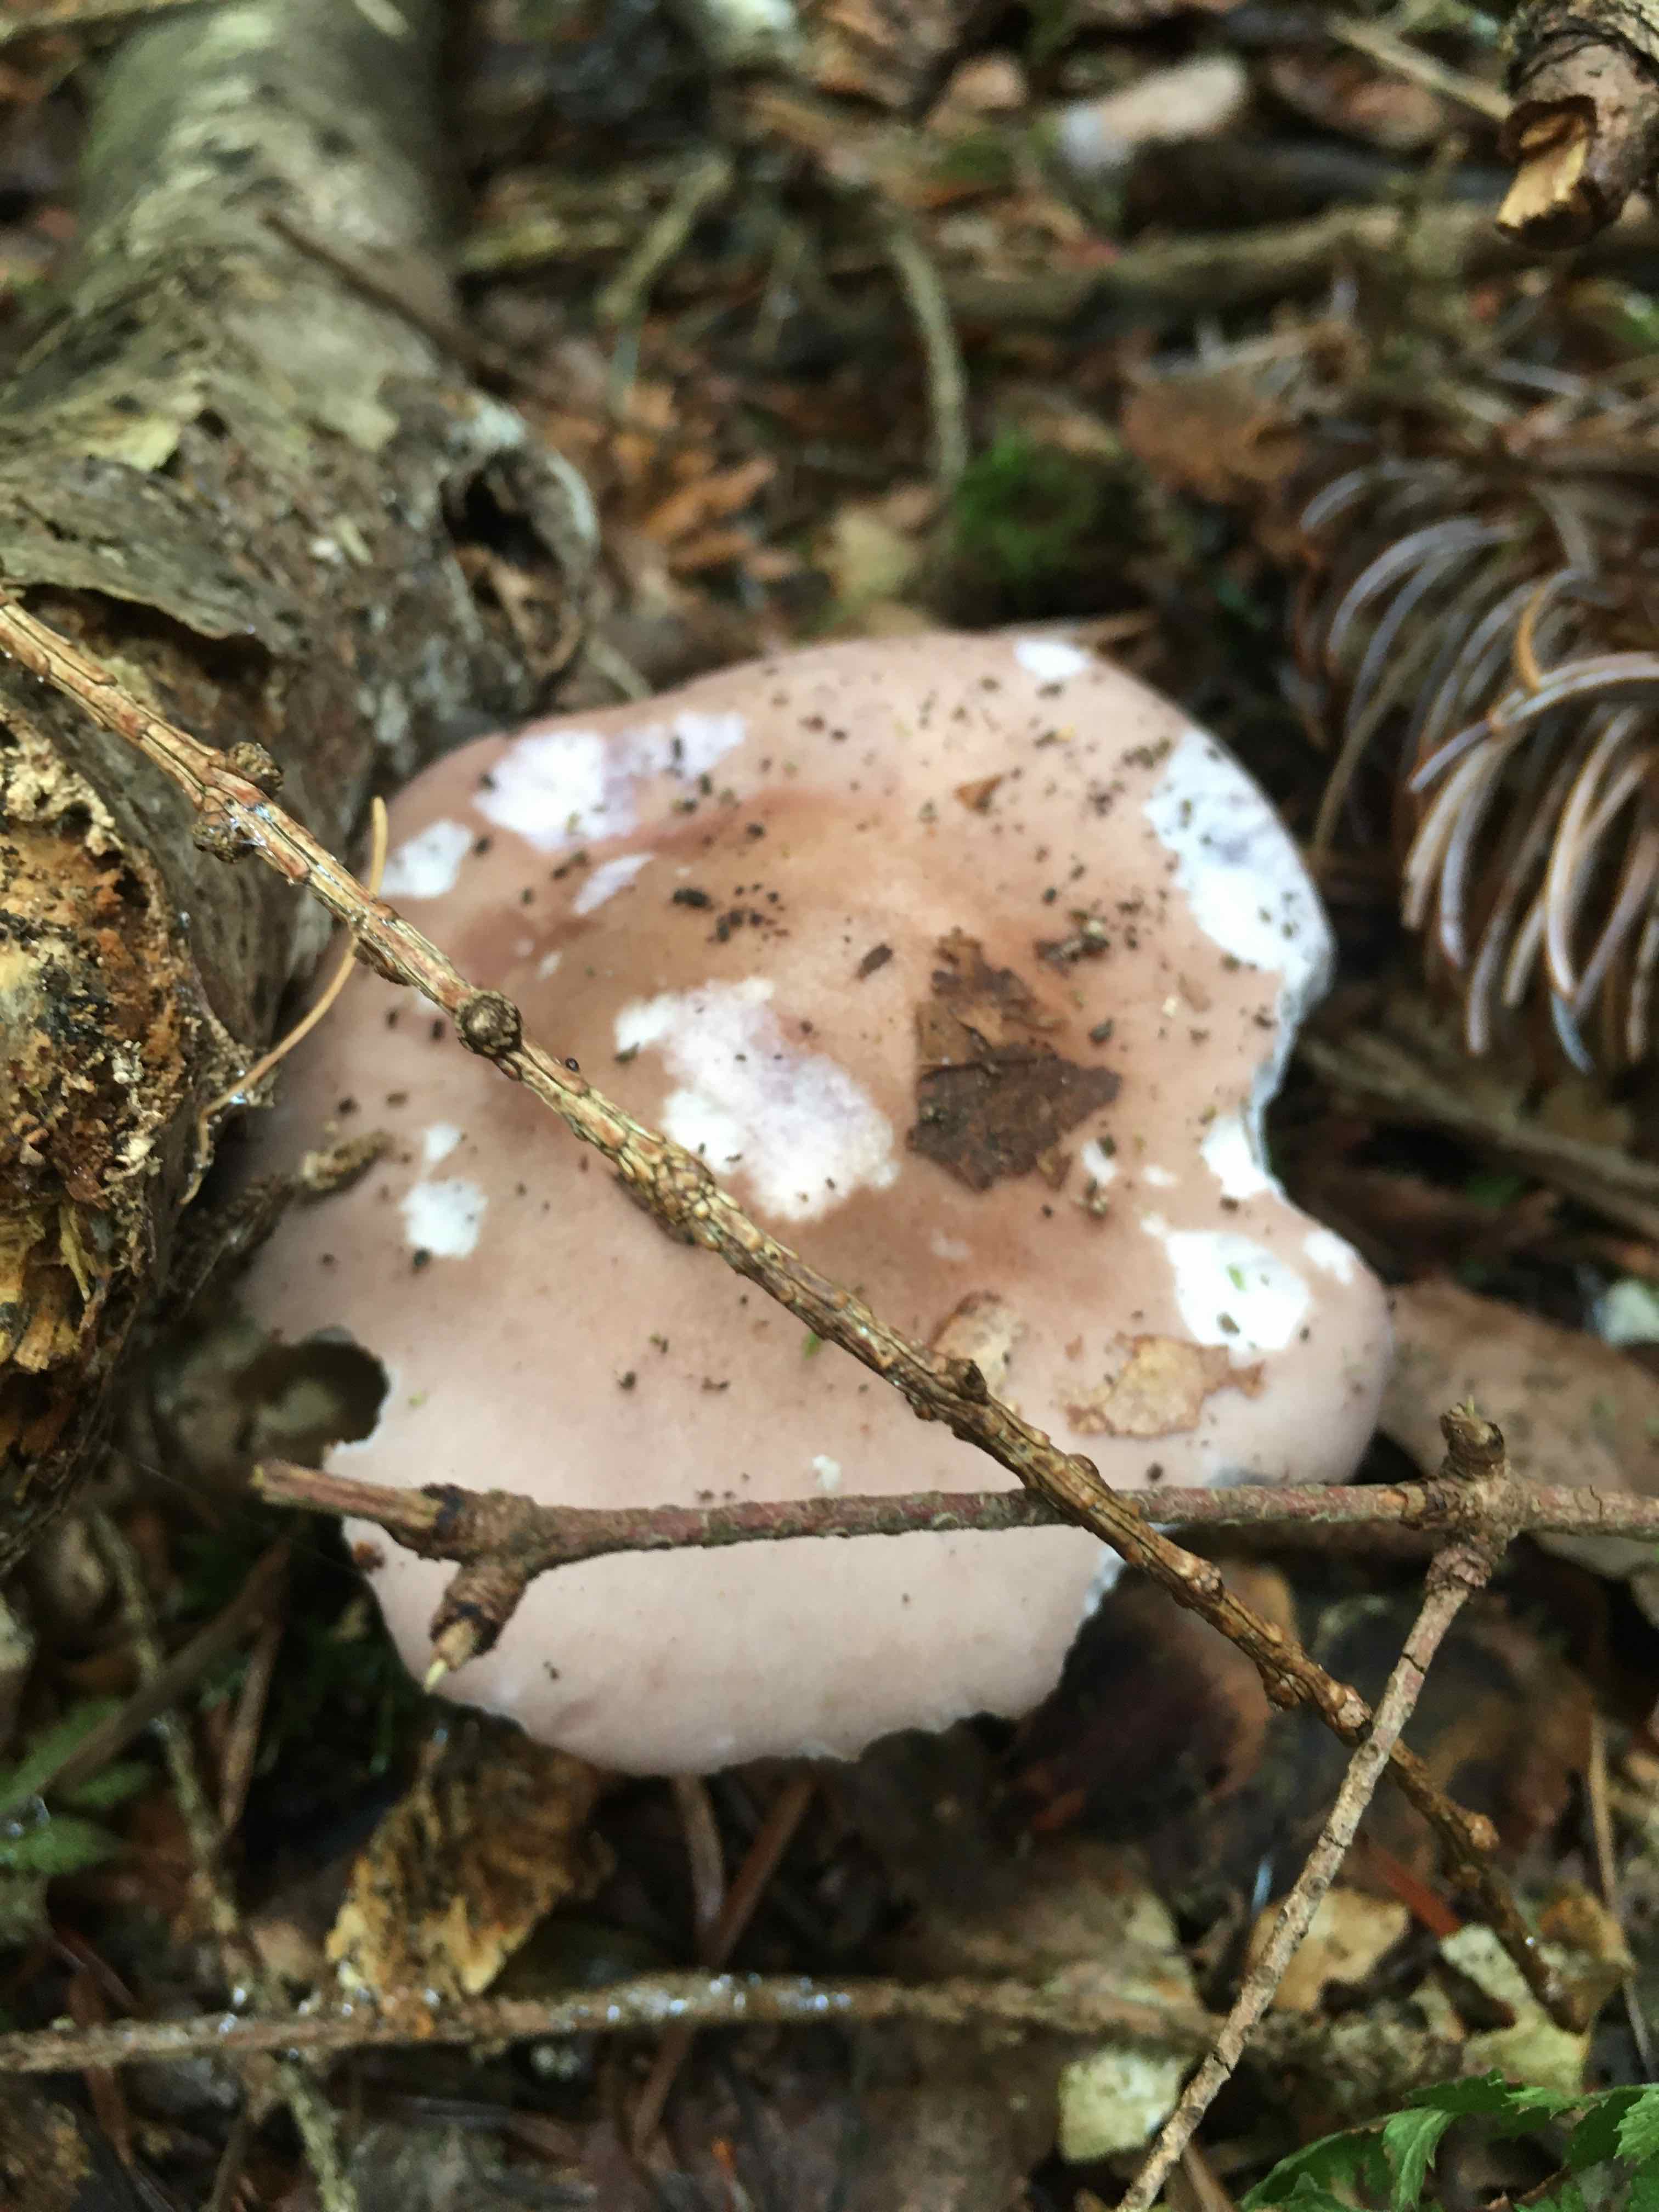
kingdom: Fungi
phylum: Basidiomycota
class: Agaricomycetes
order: Agaricales
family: Tricholomataceae
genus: Lepista
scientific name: Lepista nuda
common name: violet hekseringshat
